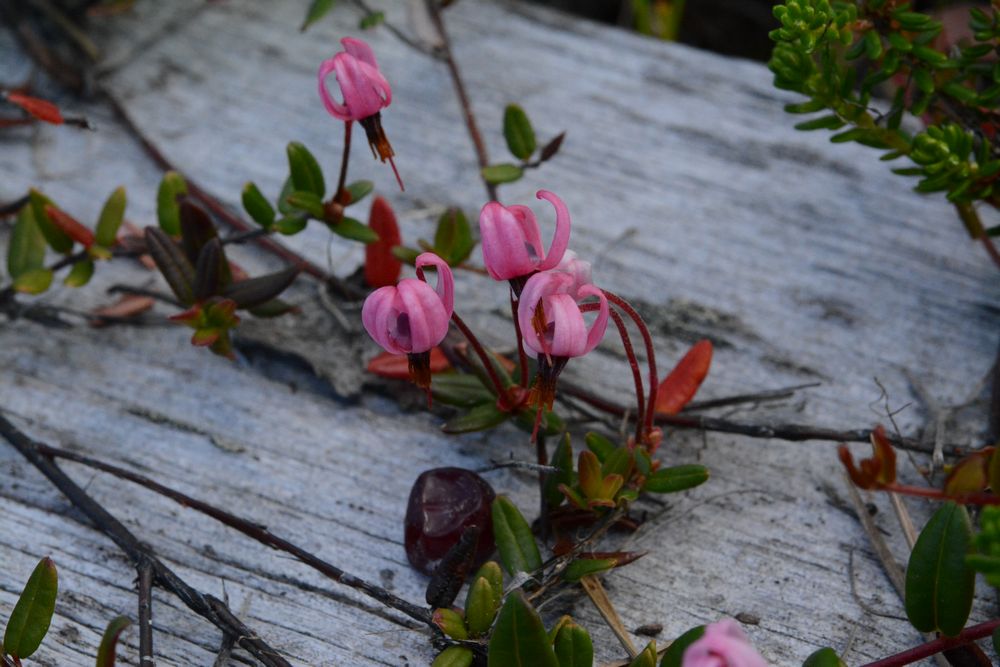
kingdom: Plantae
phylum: Tracheophyta
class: Magnoliopsida
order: Ericales
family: Ericaceae
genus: Vaccinium
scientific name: Vaccinium oxycoccos
